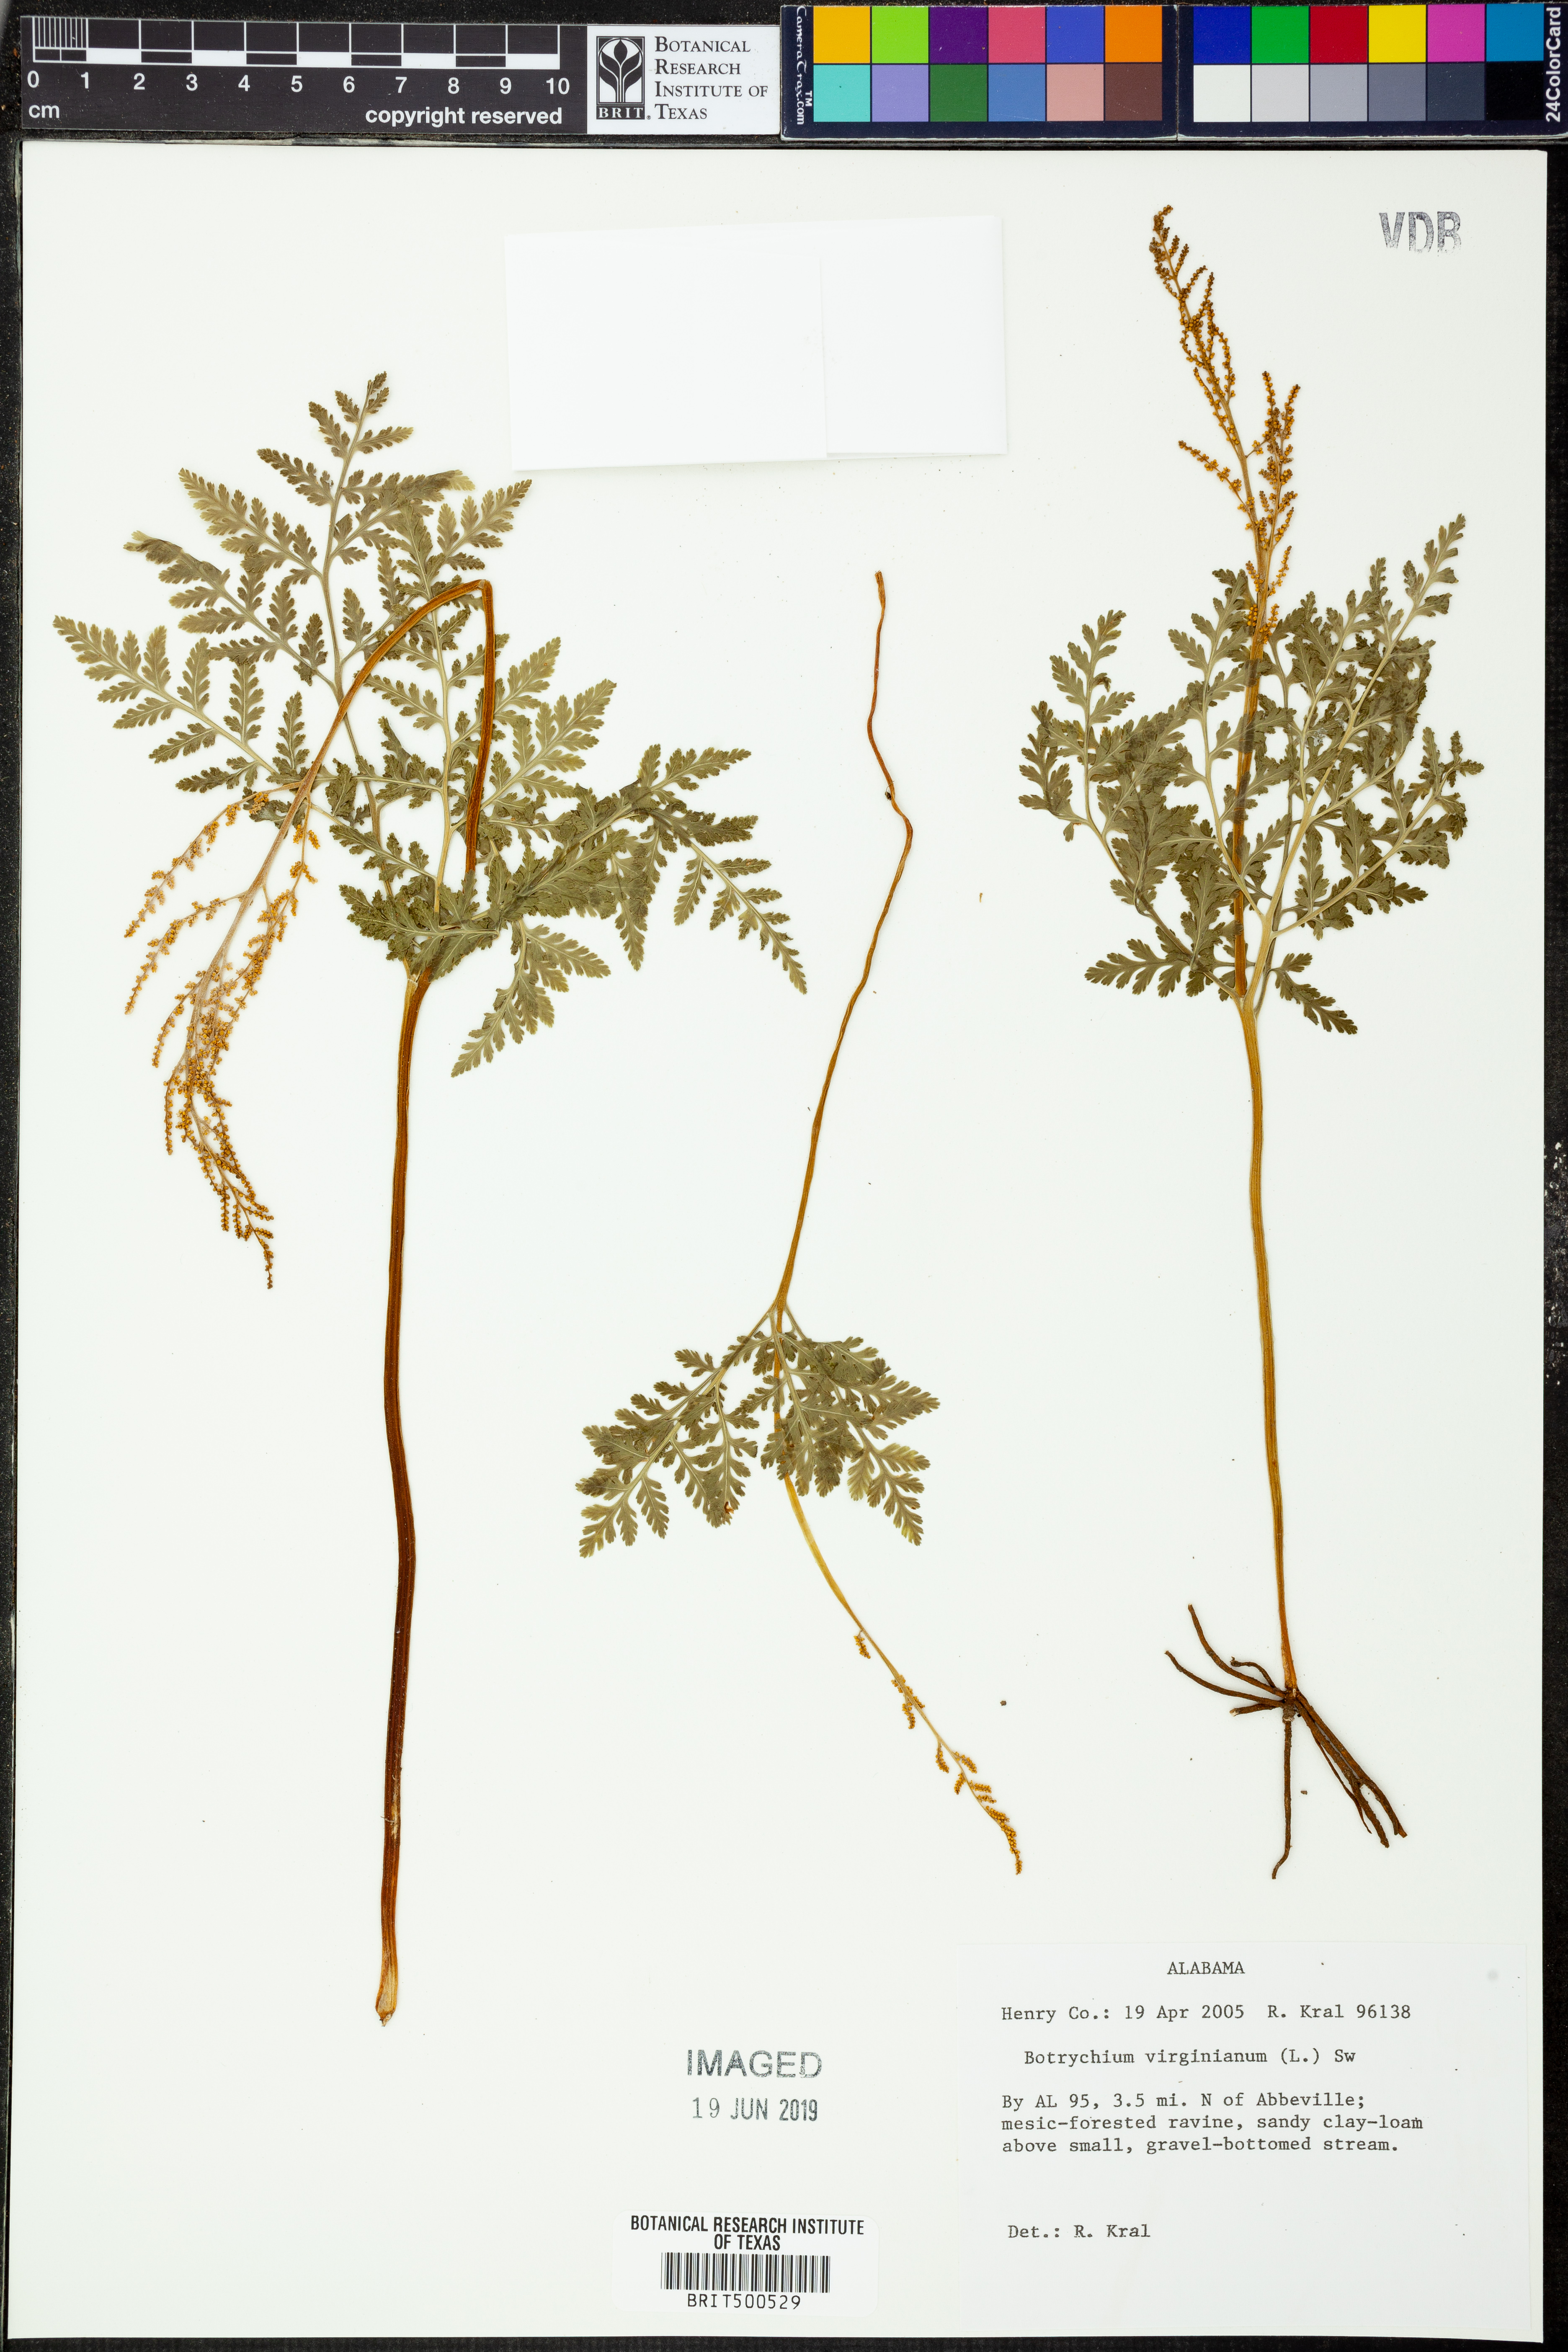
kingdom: Plantae
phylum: Tracheophyta
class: Polypodiopsida
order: Ophioglossales
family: Ophioglossaceae
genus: Botrypus
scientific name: Botrypus virginianus
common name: Common grapefern
